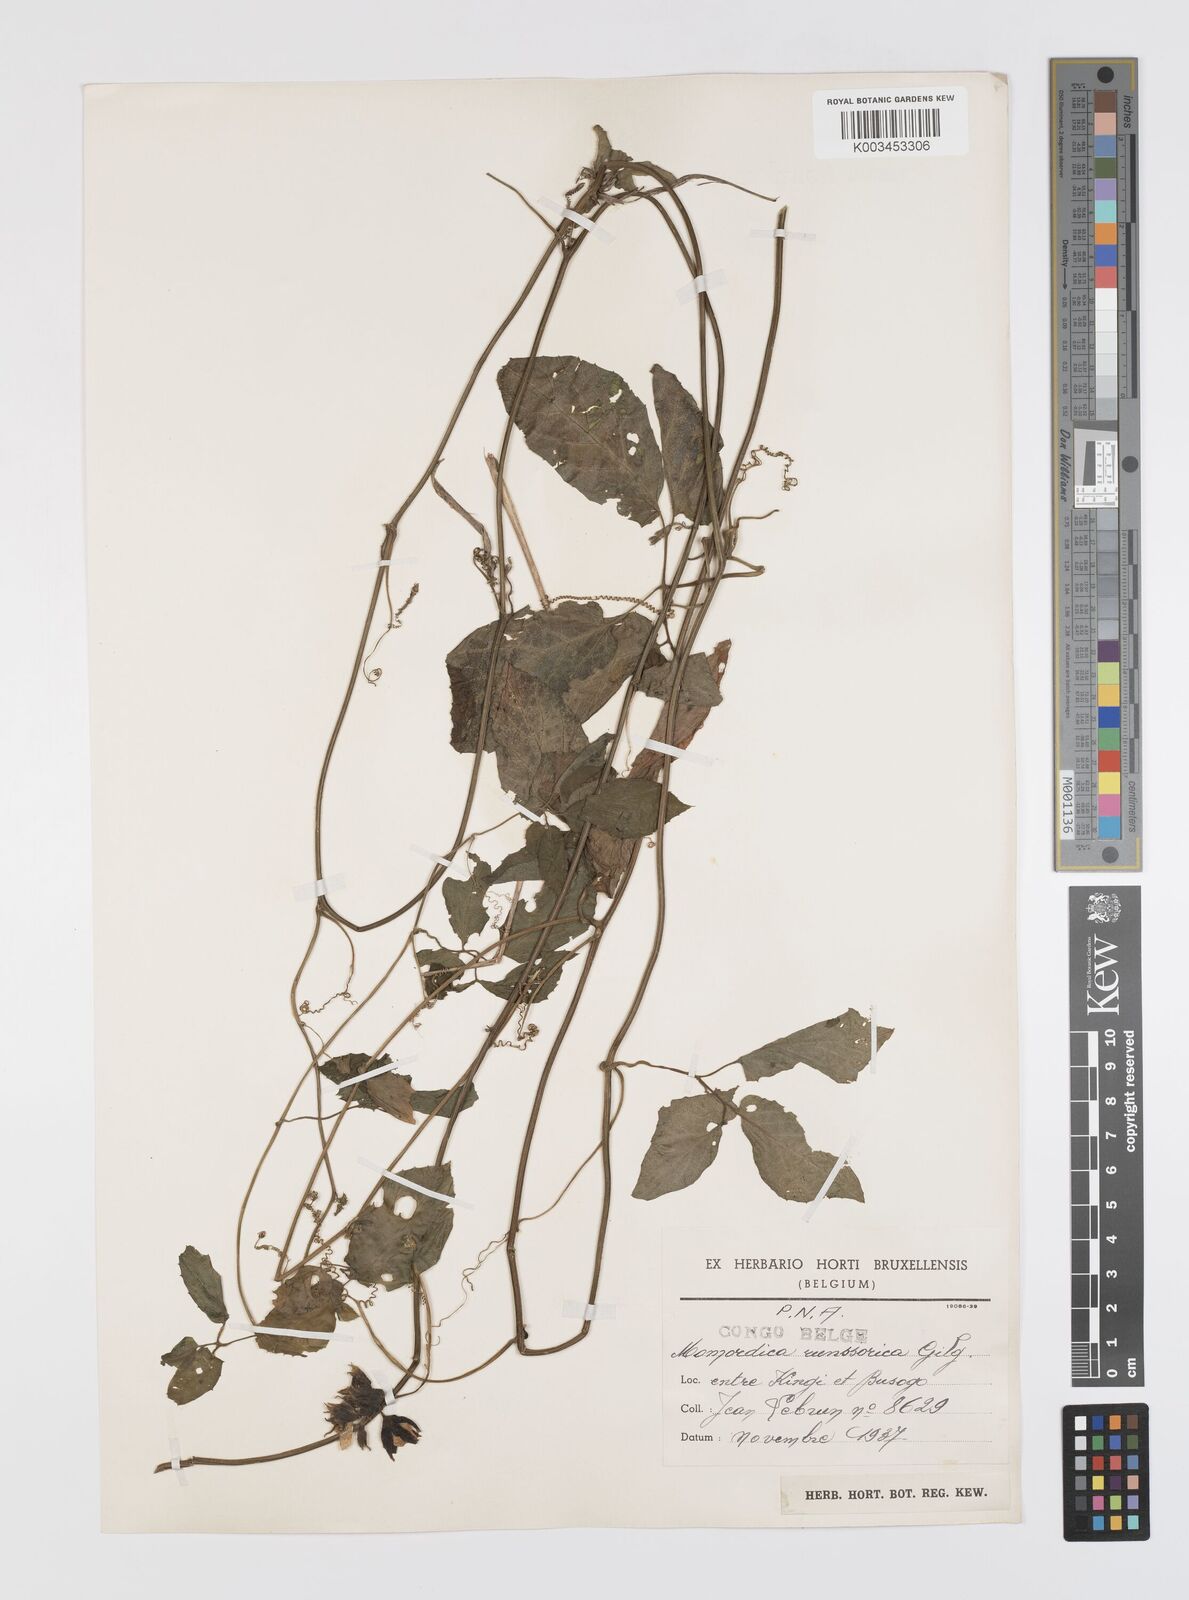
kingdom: Plantae
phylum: Tracheophyta
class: Magnoliopsida
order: Cucurbitales
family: Cucurbitaceae
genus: Momordica
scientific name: Momordica pterocarpa
